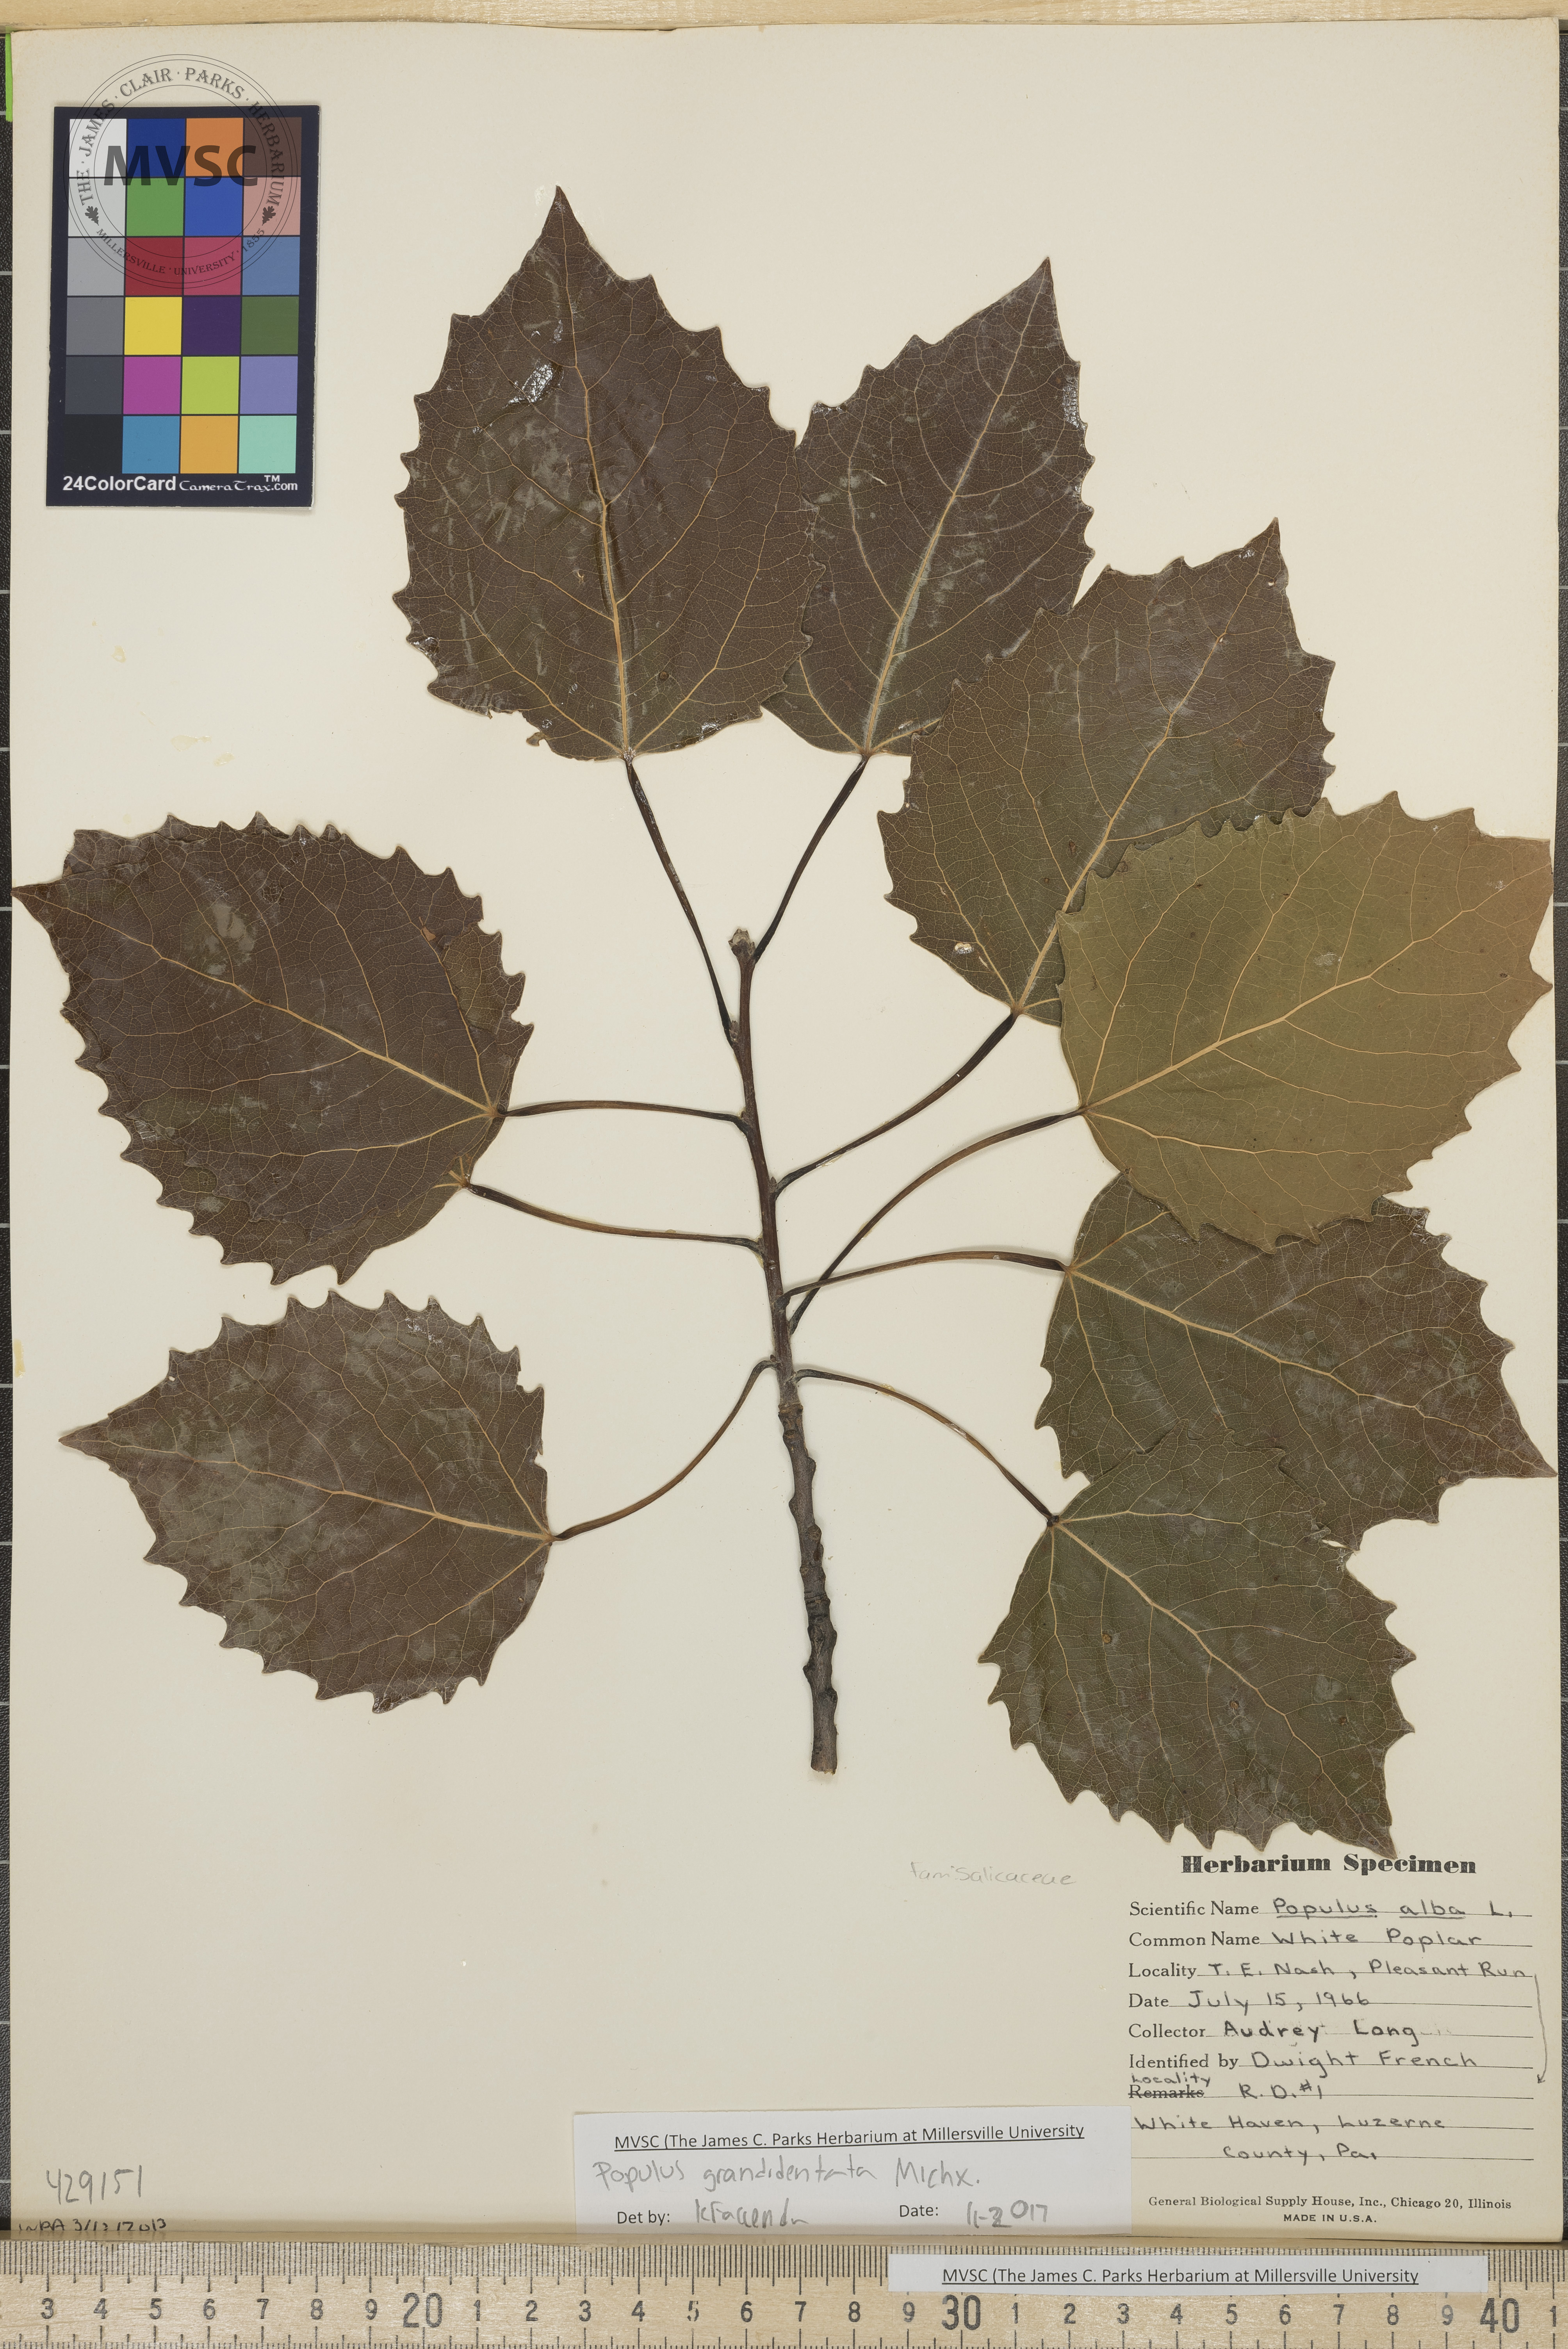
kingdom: Plantae
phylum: Tracheophyta
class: Magnoliopsida
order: Malpighiales
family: Salicaceae
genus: Populus
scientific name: Populus grandidentata
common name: Bigtooth aspen
